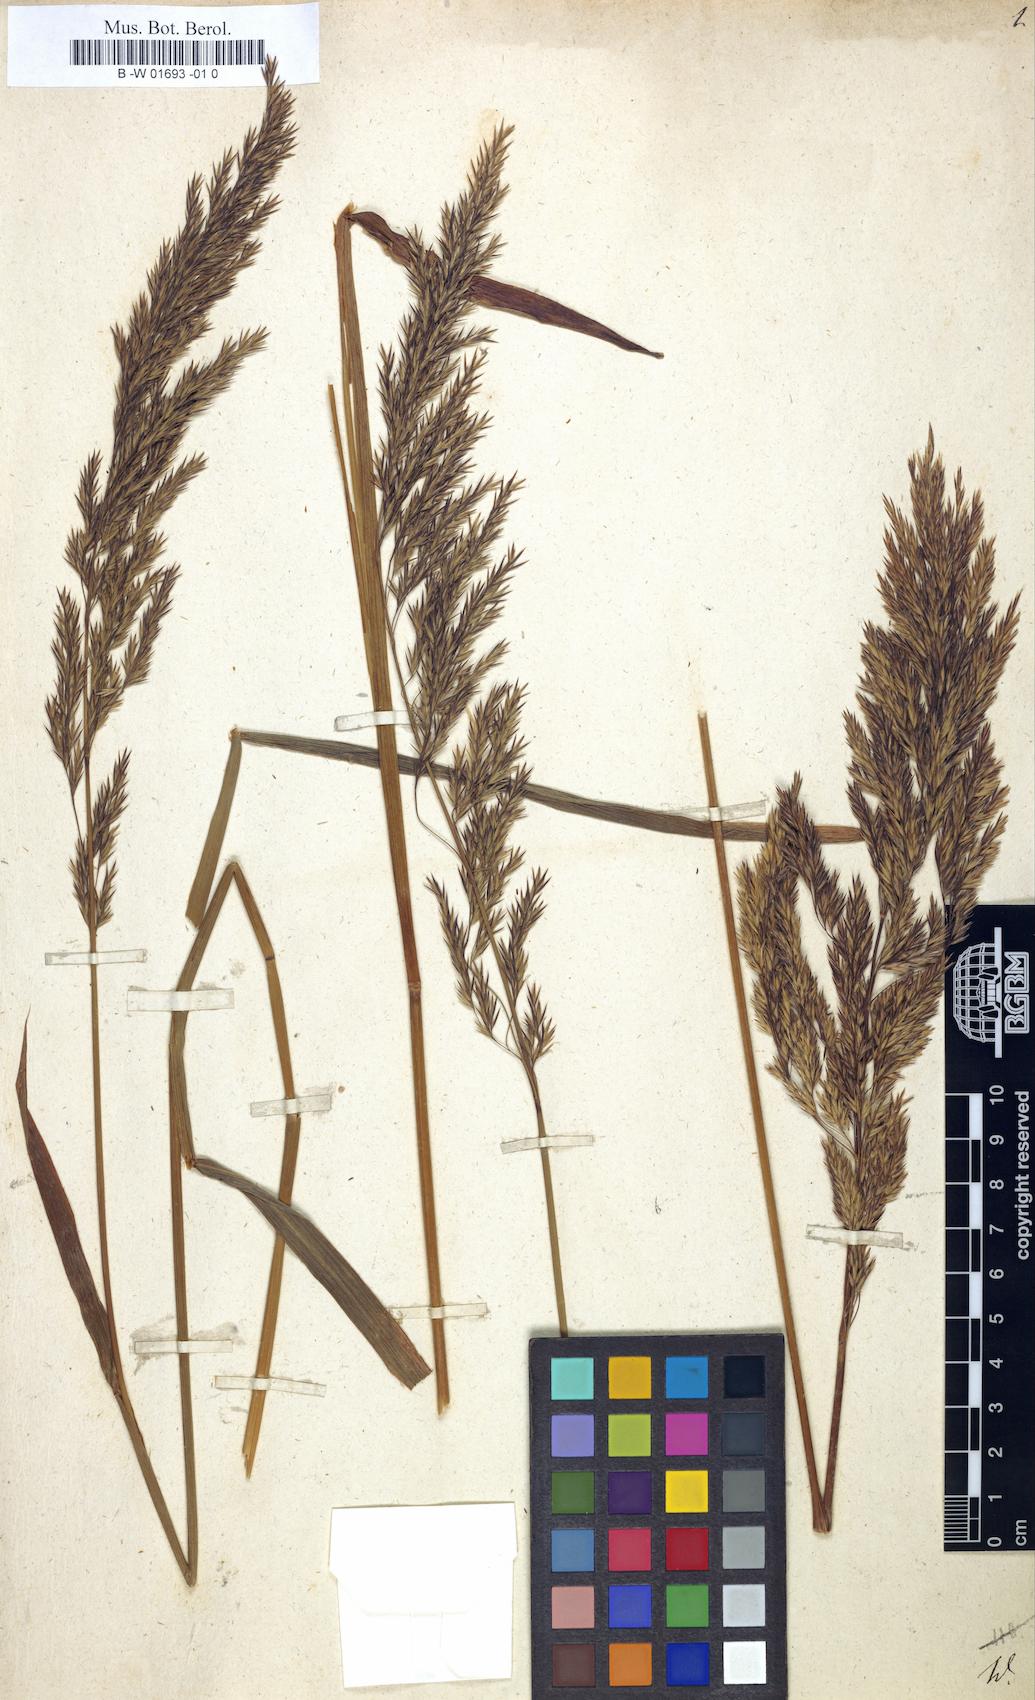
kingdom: Plantae
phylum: Tracheophyta
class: Liliopsida
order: Poales
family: Poaceae
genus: Cinna
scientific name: Cinna arundinacea
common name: Stout woodreed
